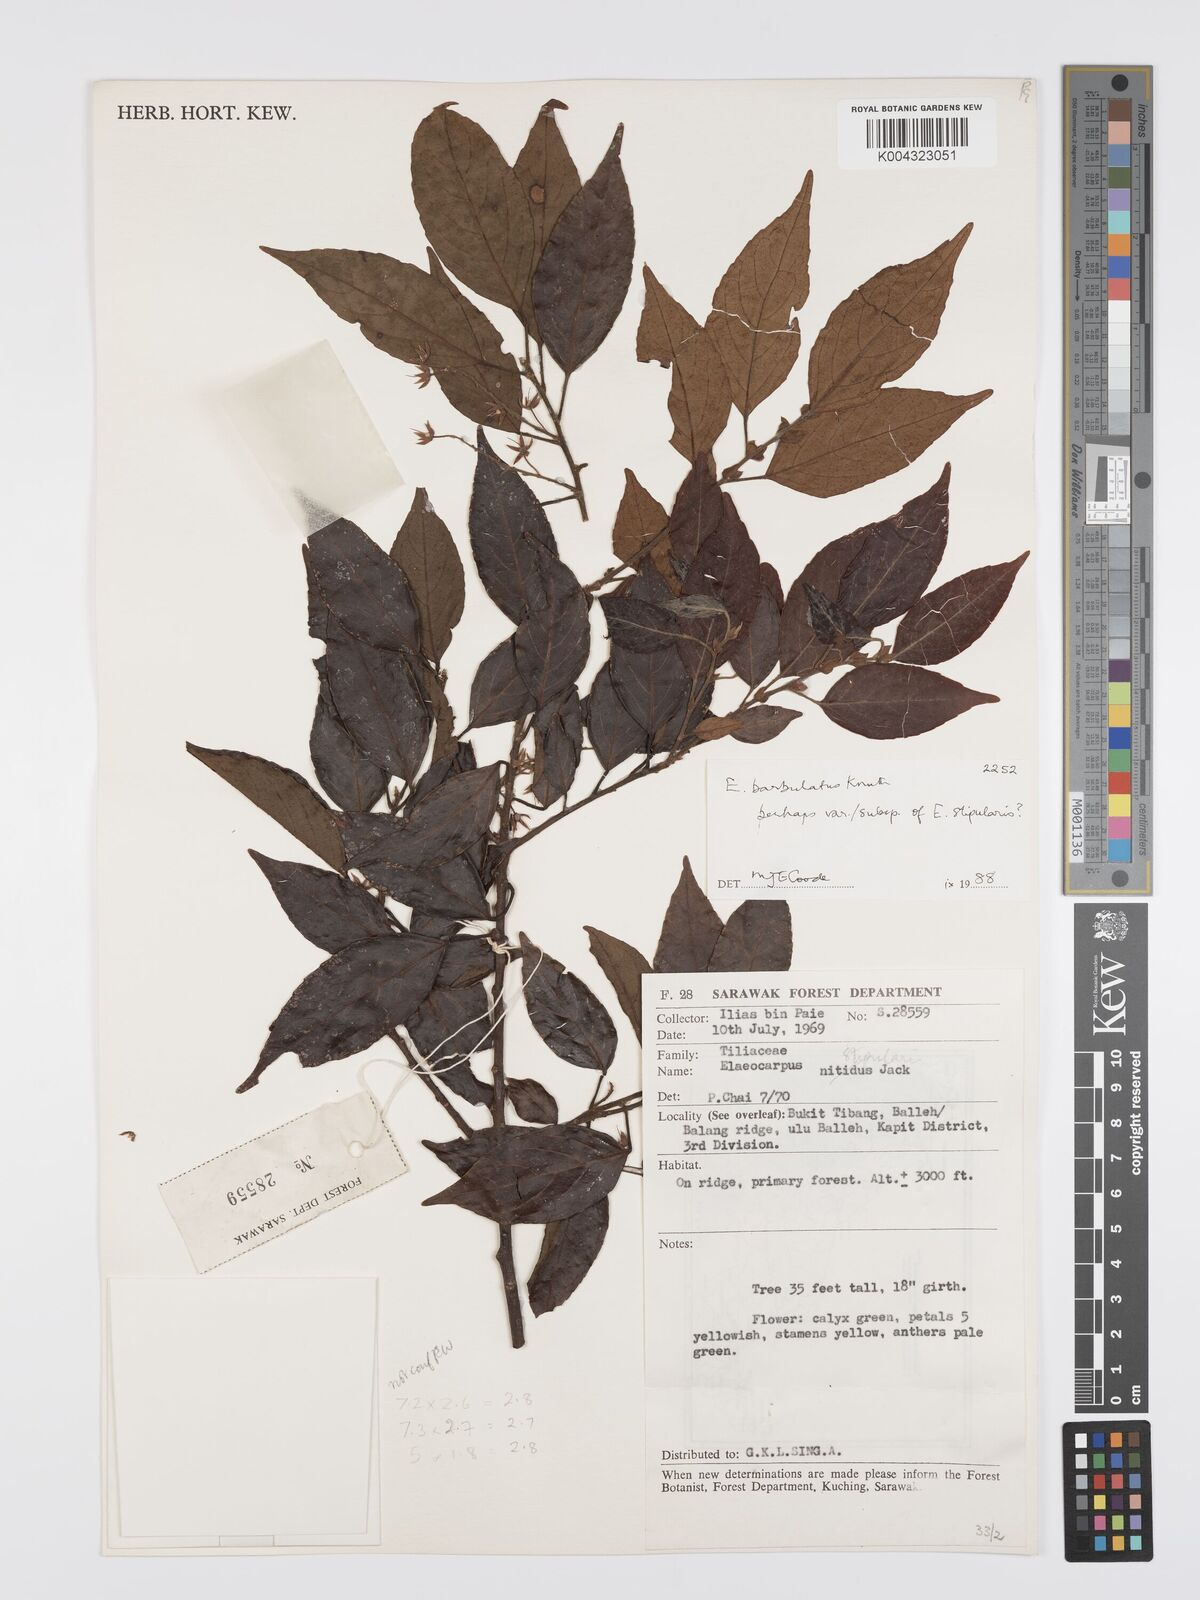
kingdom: Plantae
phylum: Tracheophyta
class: Magnoliopsida
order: Oxalidales
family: Elaeocarpaceae
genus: Elaeocarpus
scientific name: Elaeocarpus barbulatus
